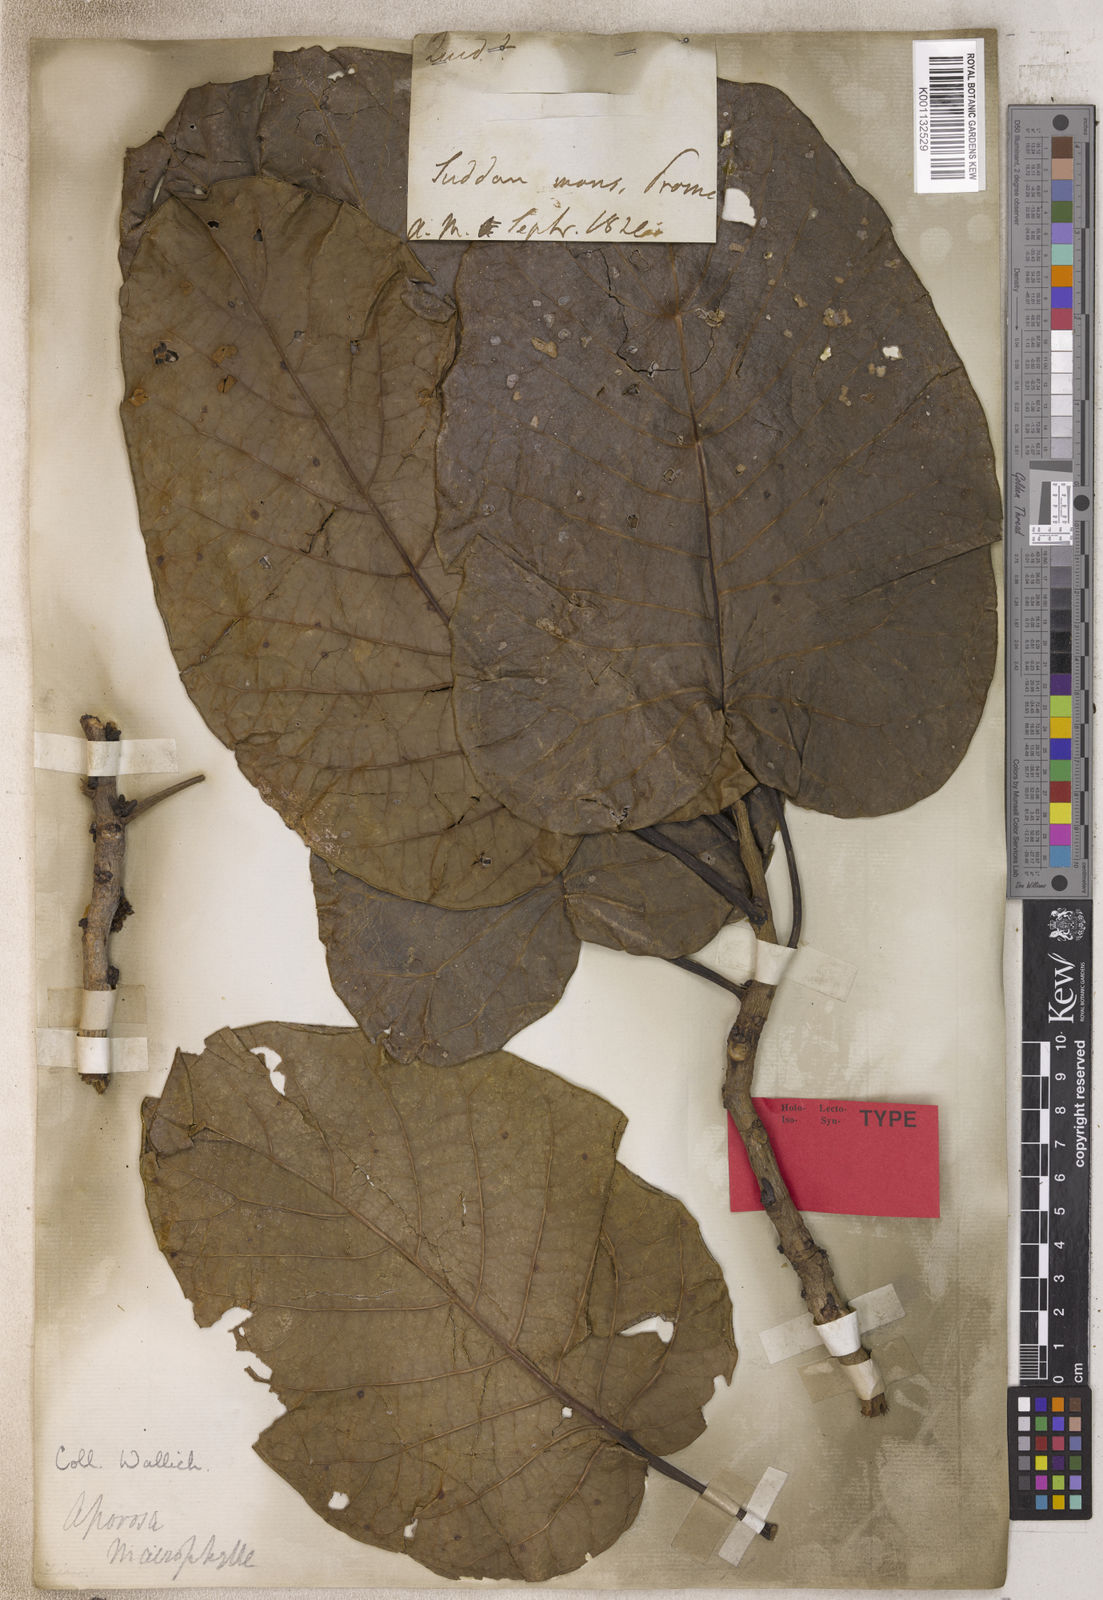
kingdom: Plantae
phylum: Tracheophyta
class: Magnoliopsida
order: Malpighiales
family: Phyllanthaceae
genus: Aporosa
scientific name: Aporosa
